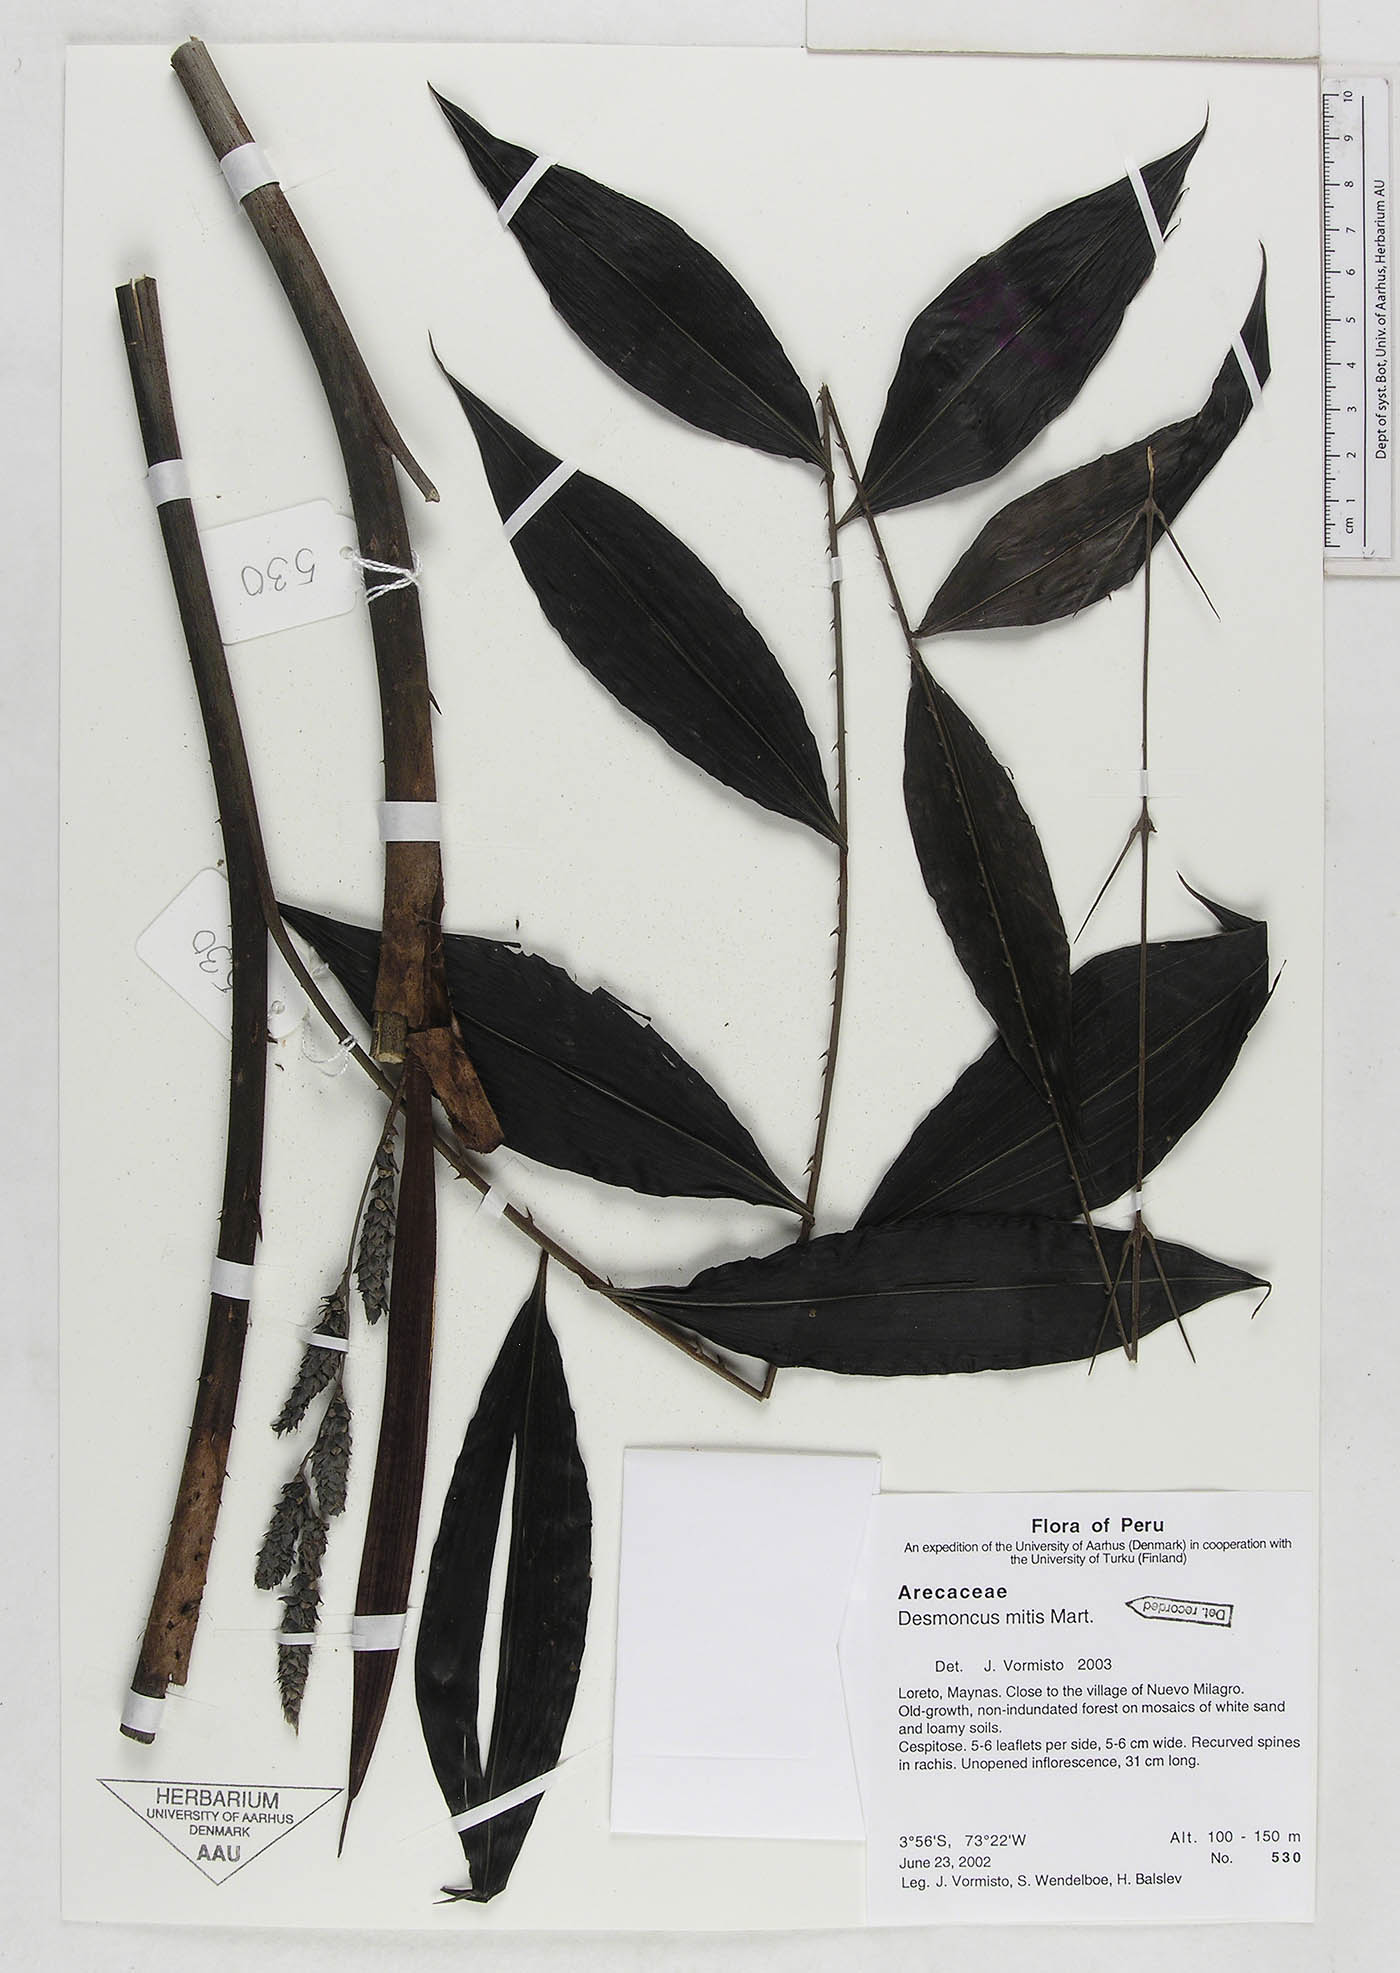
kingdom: Plantae
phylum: Tracheophyta
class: Liliopsida
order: Arecales
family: Arecaceae
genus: Desmoncus
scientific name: Desmoncus vacivus
